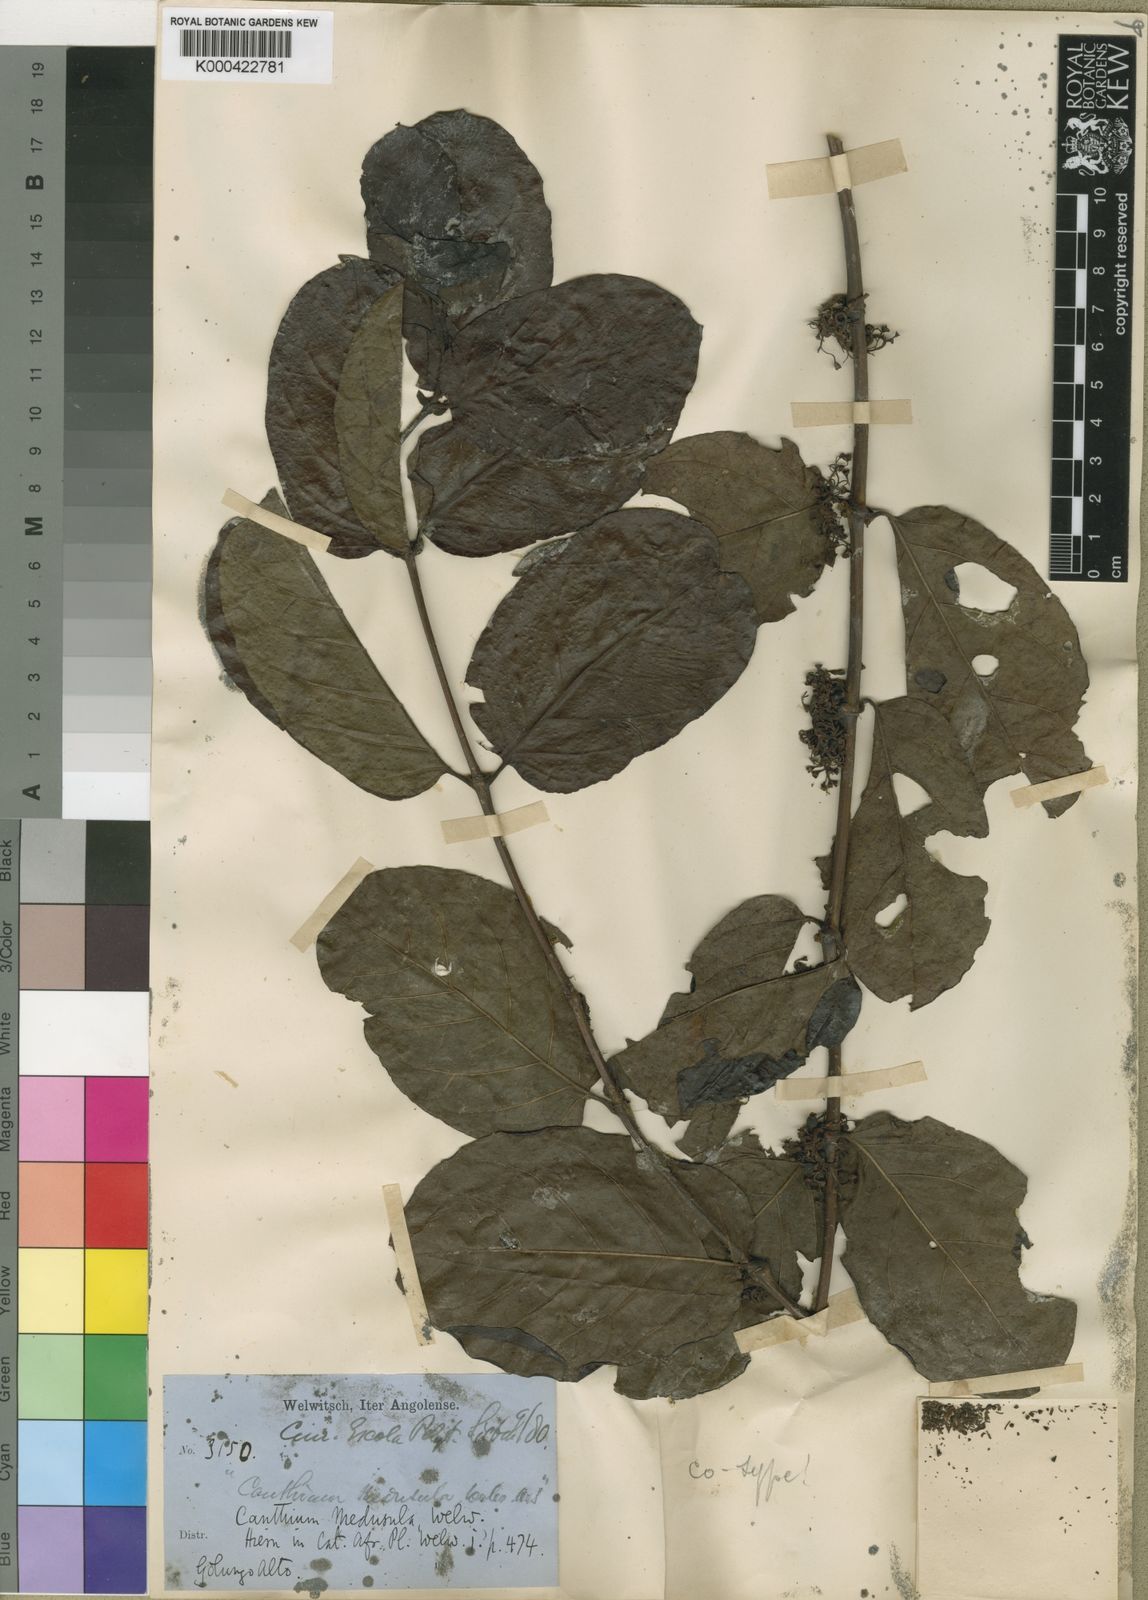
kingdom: Plantae
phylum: Tracheophyta
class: Magnoliopsida
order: Gentianales
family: Rubiaceae
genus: Keetia
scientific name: Keetia hispida
